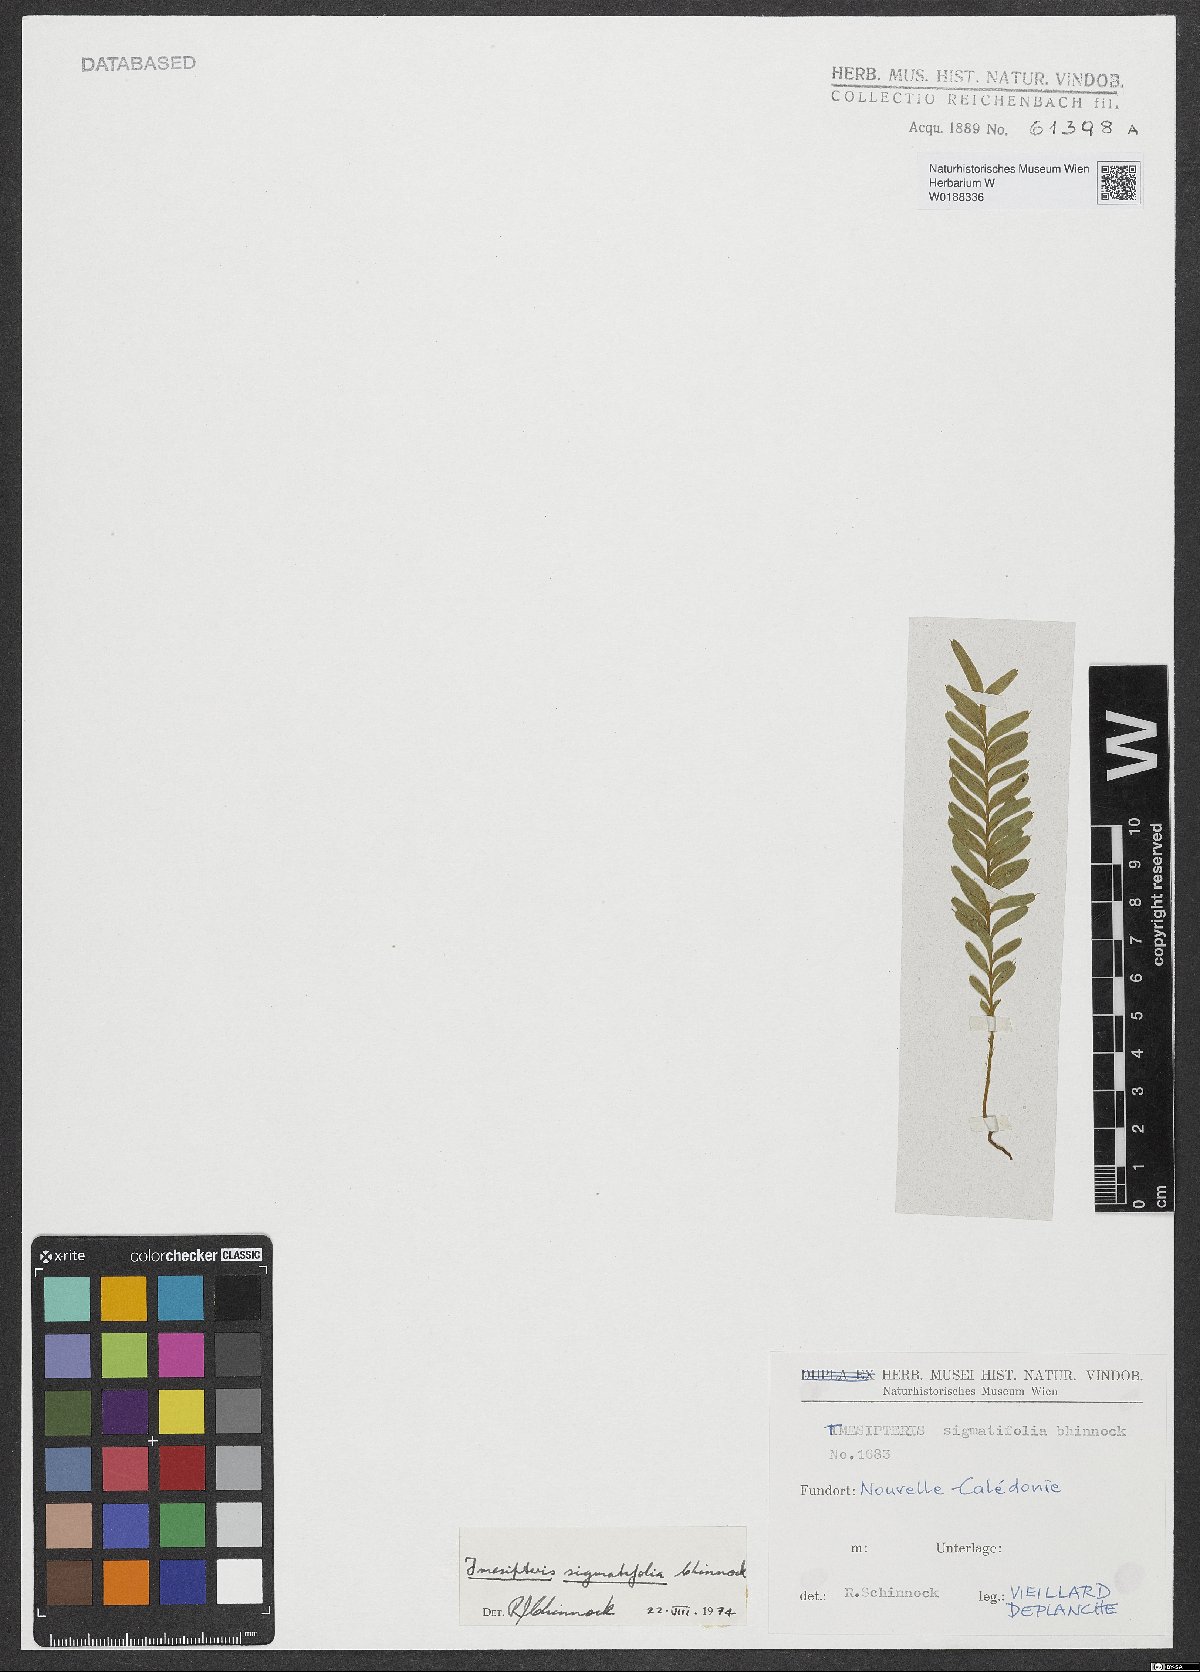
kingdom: Plantae
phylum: Tracheophyta
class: Polypodiopsida
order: Psilotales
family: Psilotaceae
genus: Tmesipteris
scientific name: Tmesipteris sigmatifolia
